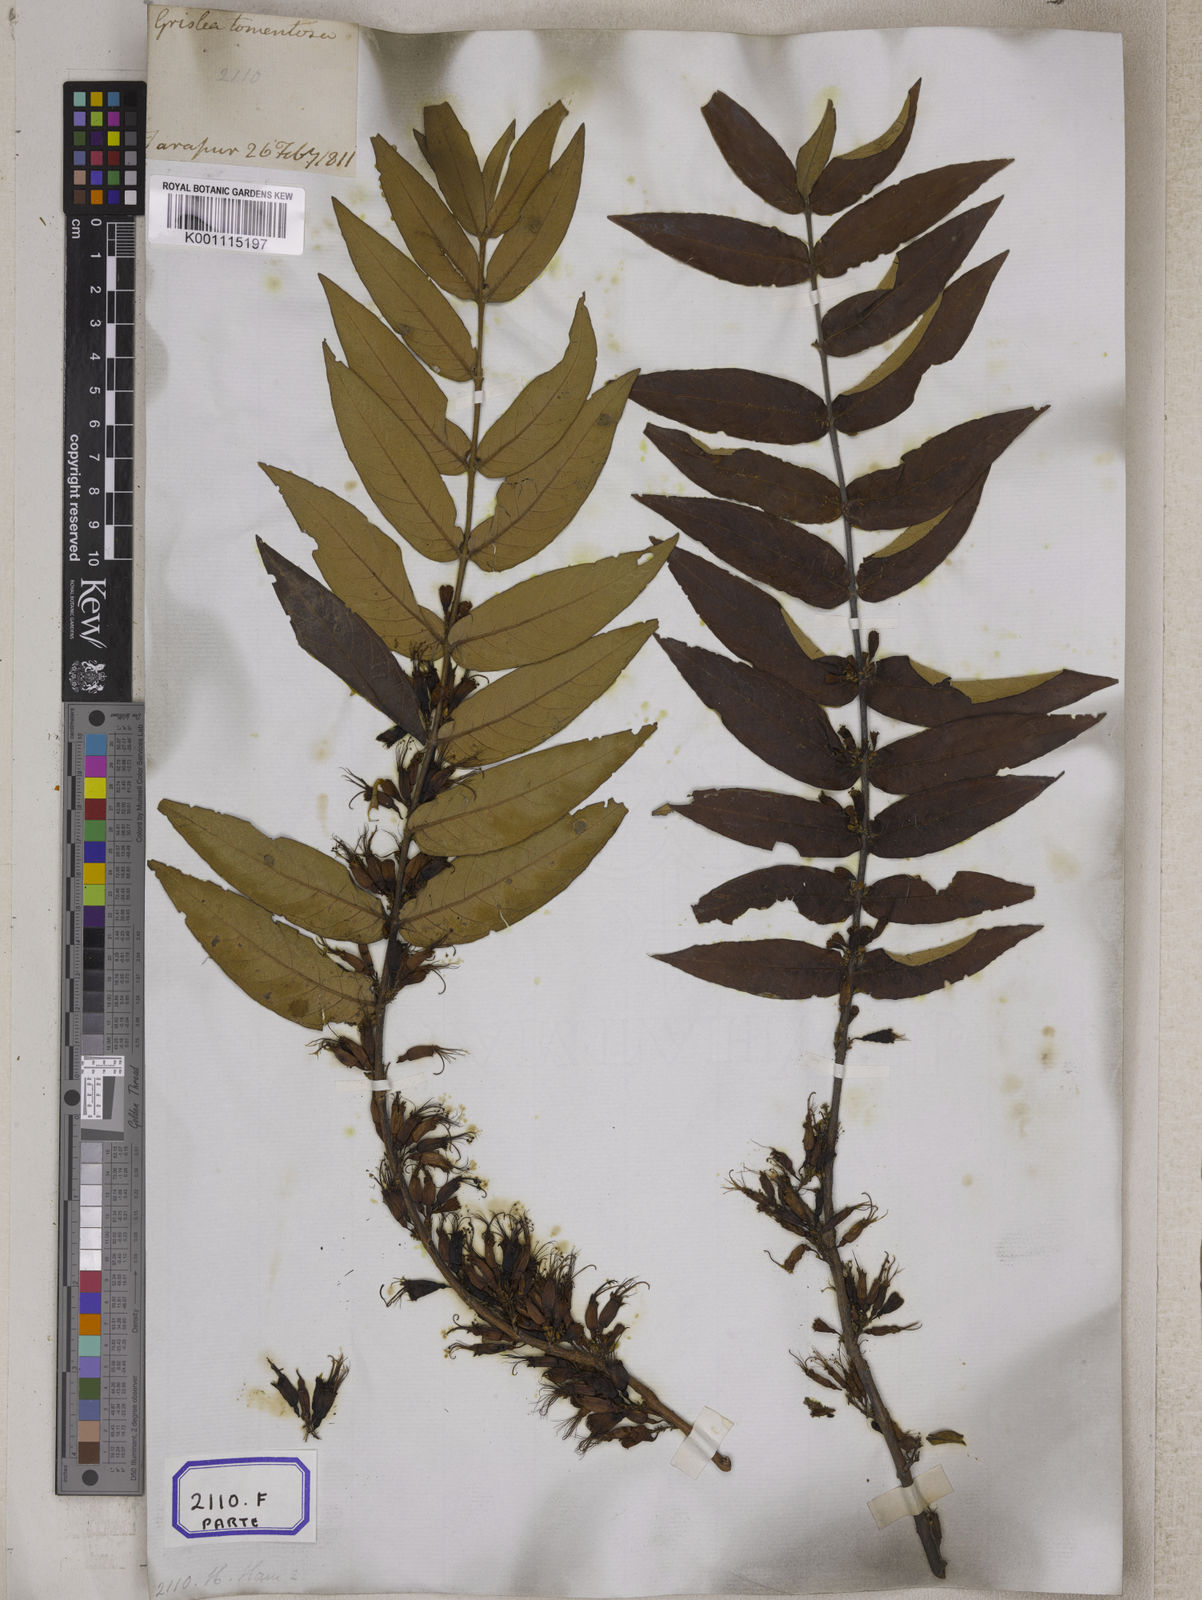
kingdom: Plantae
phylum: Tracheophyta
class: Magnoliopsida
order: Myrtales
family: Combretaceae
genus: Combretum
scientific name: Combretum
